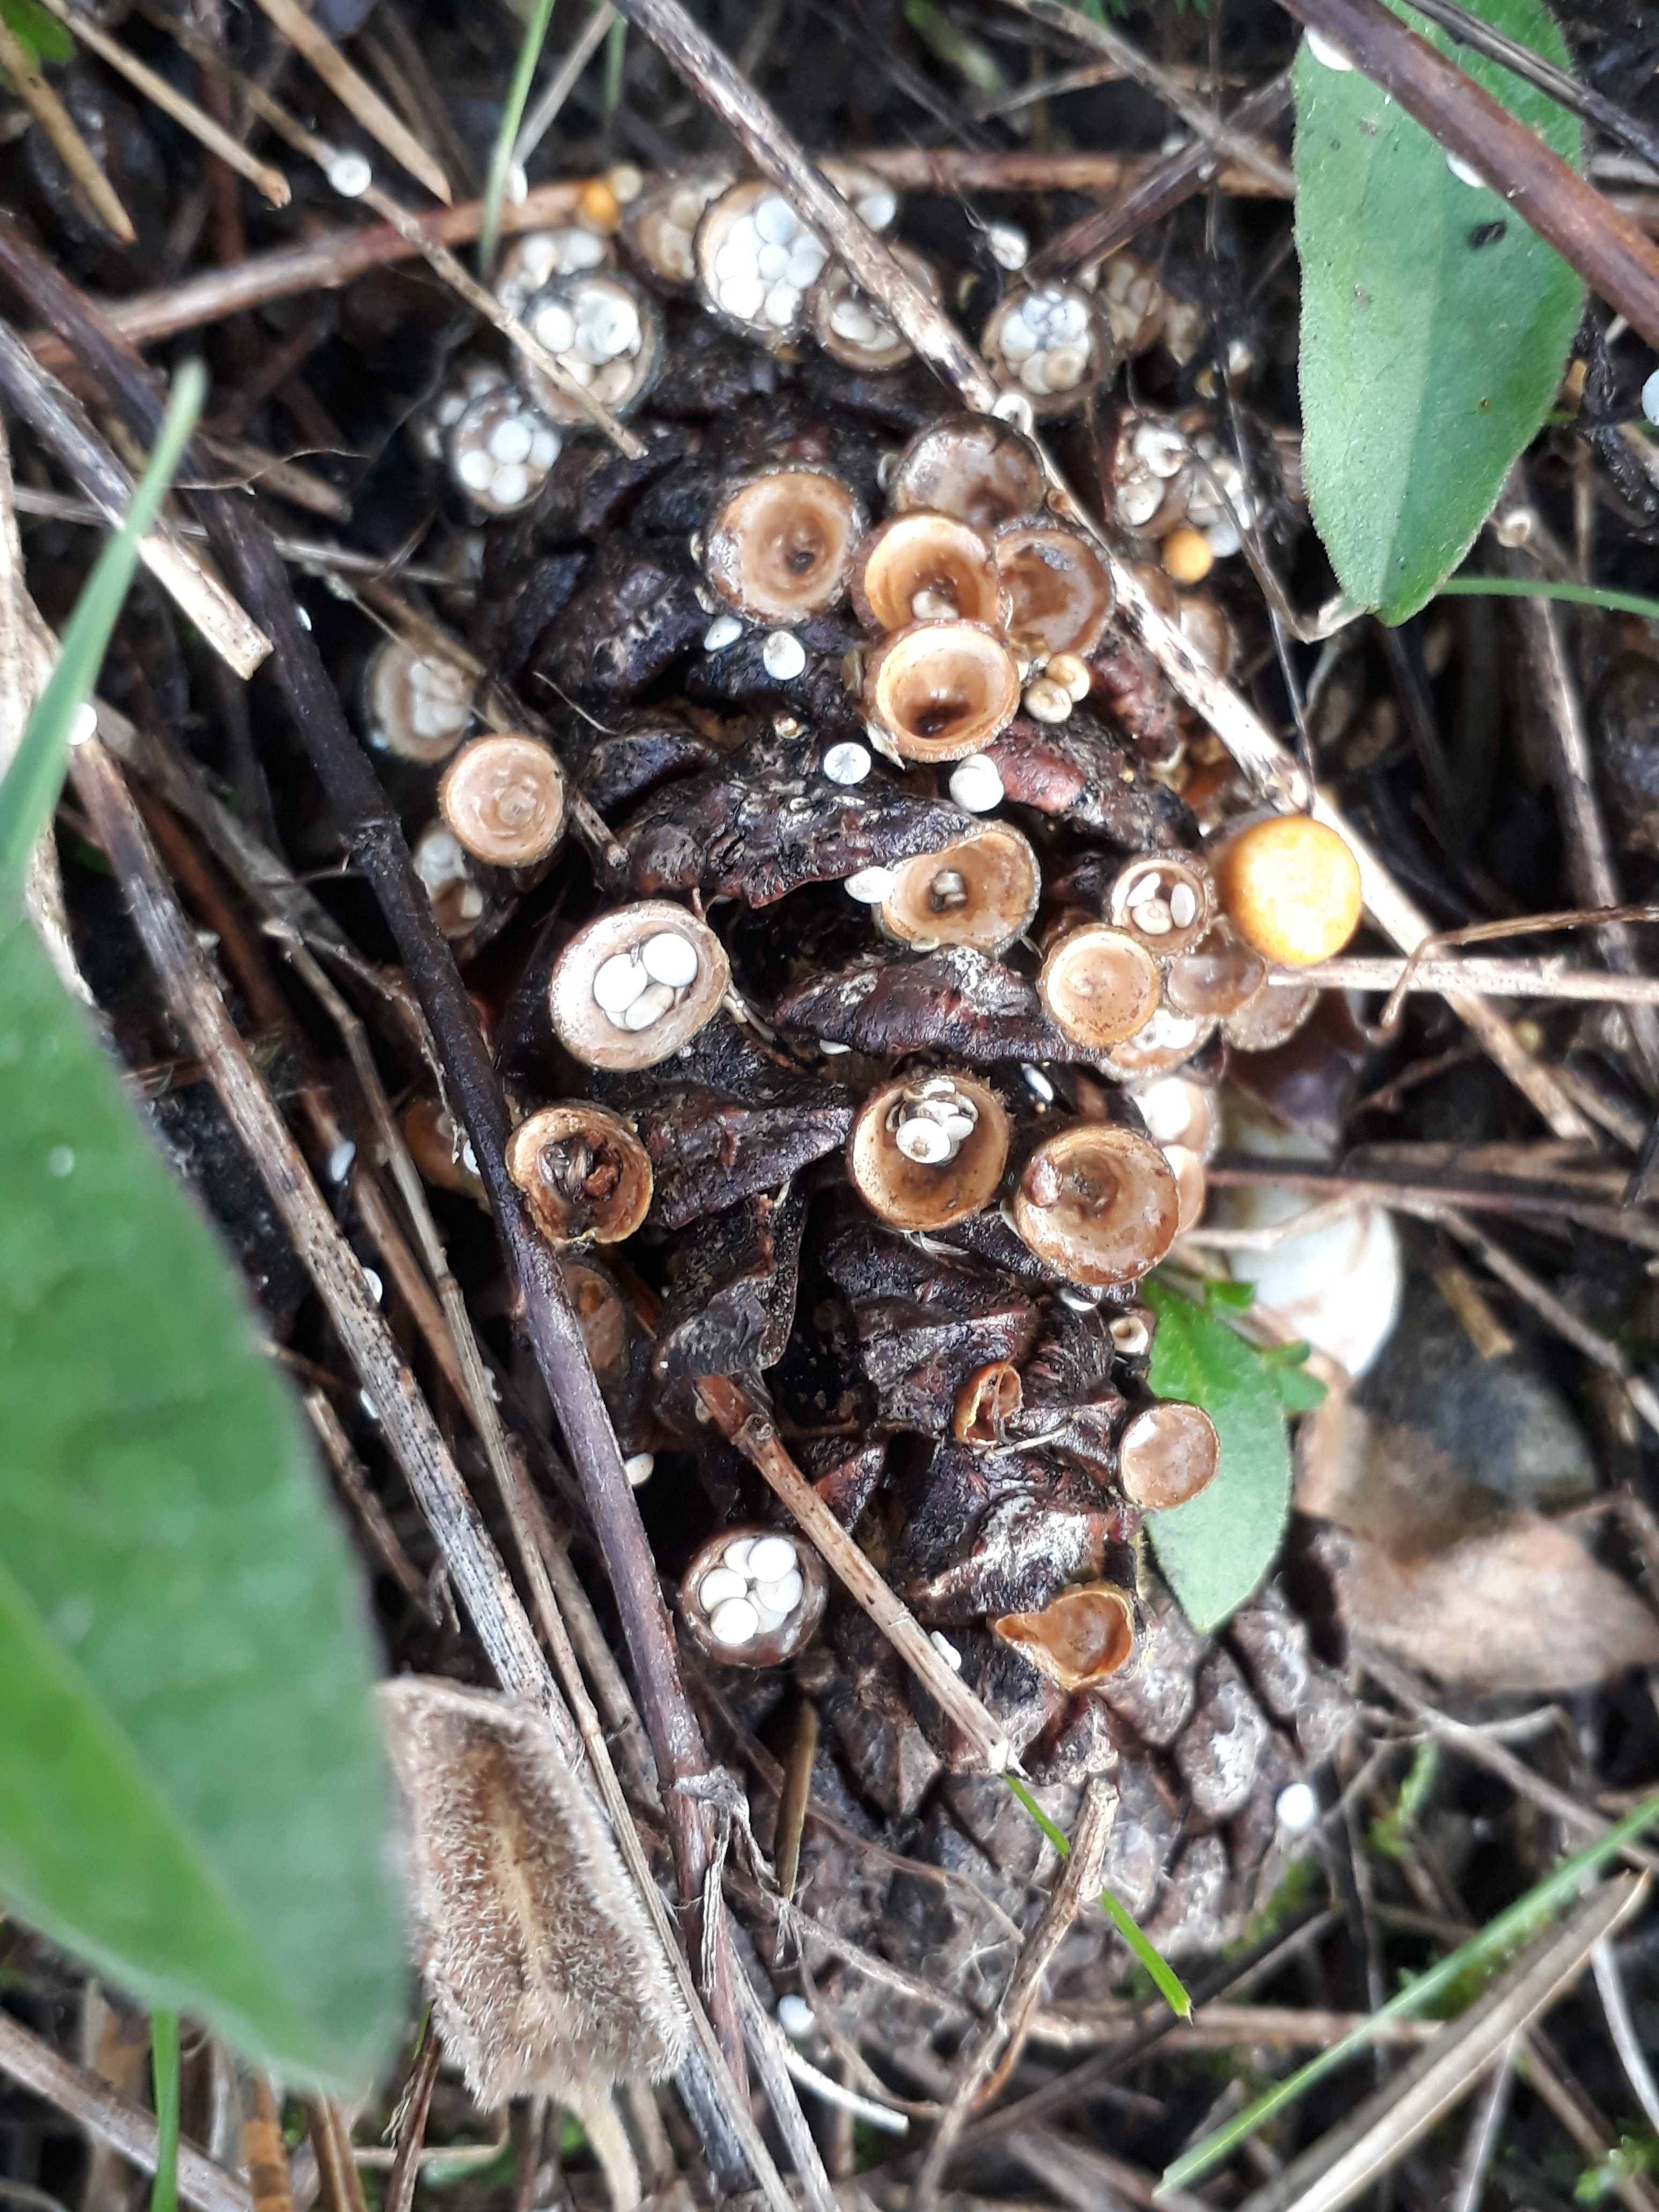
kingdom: Fungi
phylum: Basidiomycota
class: Agaricomycetes
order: Agaricales
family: Nidulariaceae
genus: Crucibulum
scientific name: Crucibulum crucibuliforme
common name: krukkesvamp
